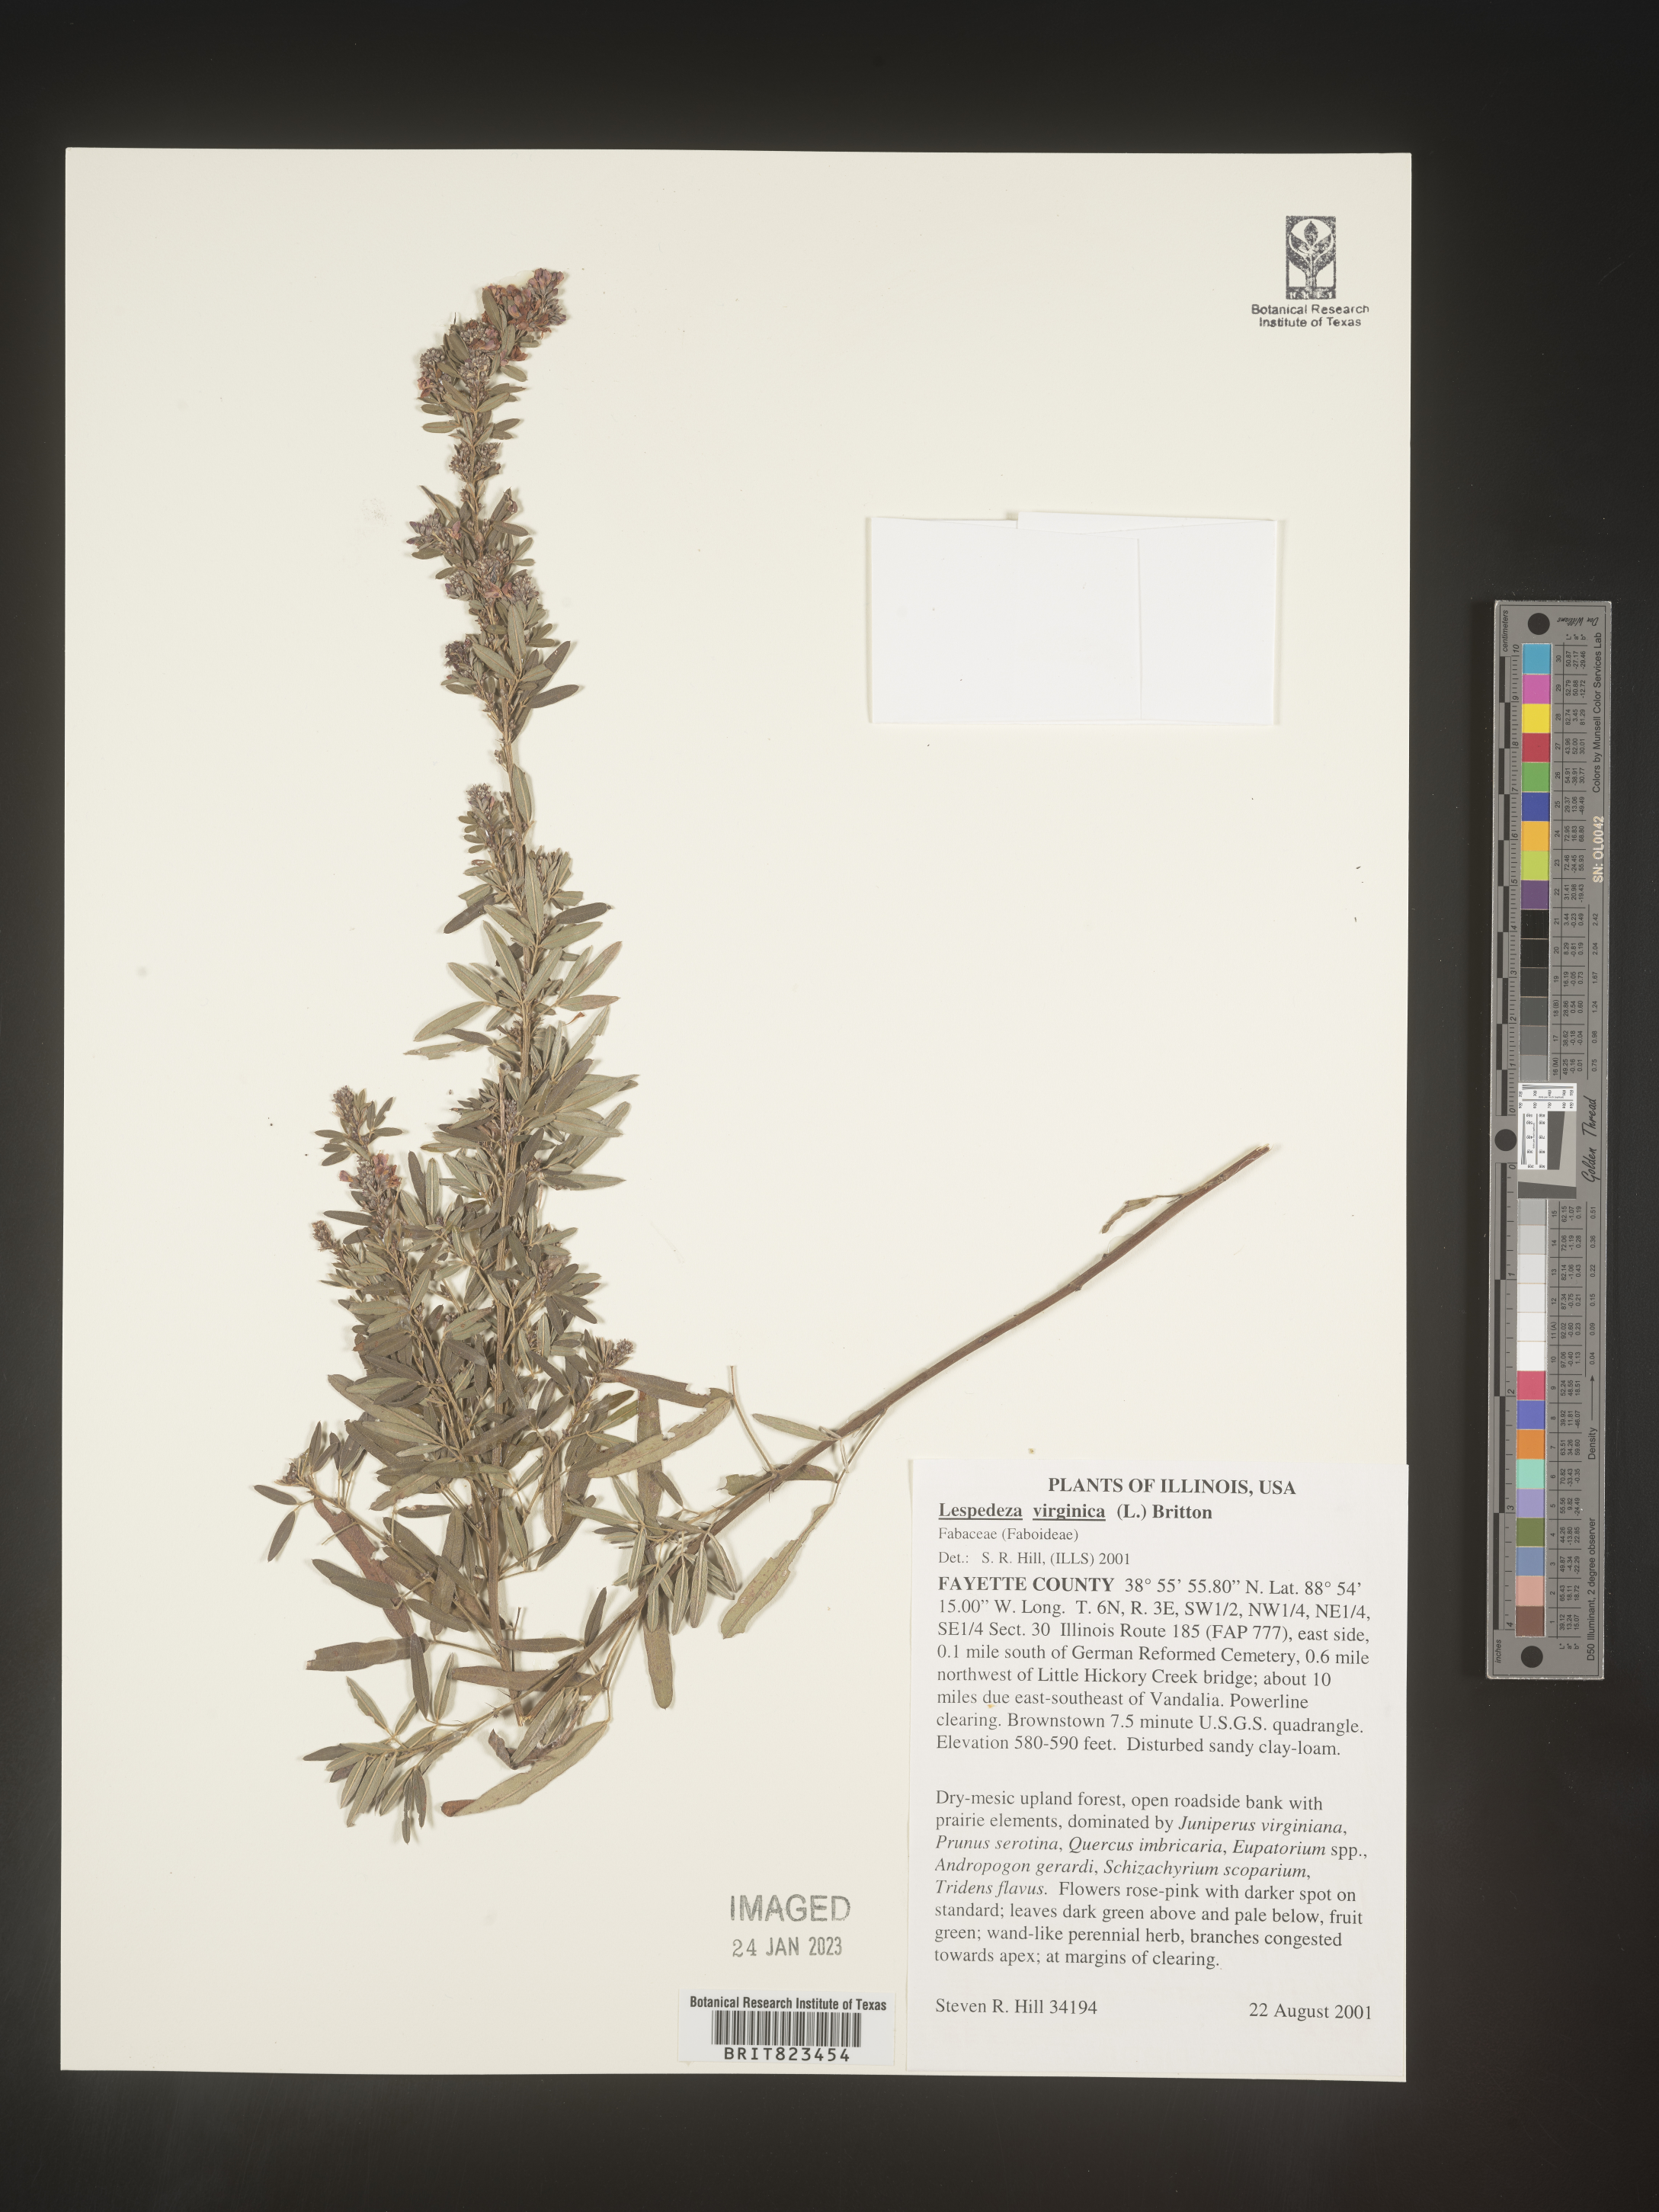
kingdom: Plantae
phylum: Tracheophyta
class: Magnoliopsida
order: Fabales
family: Fabaceae
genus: Lespedeza
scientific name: Lespedeza virginica
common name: Slender bush-clover
